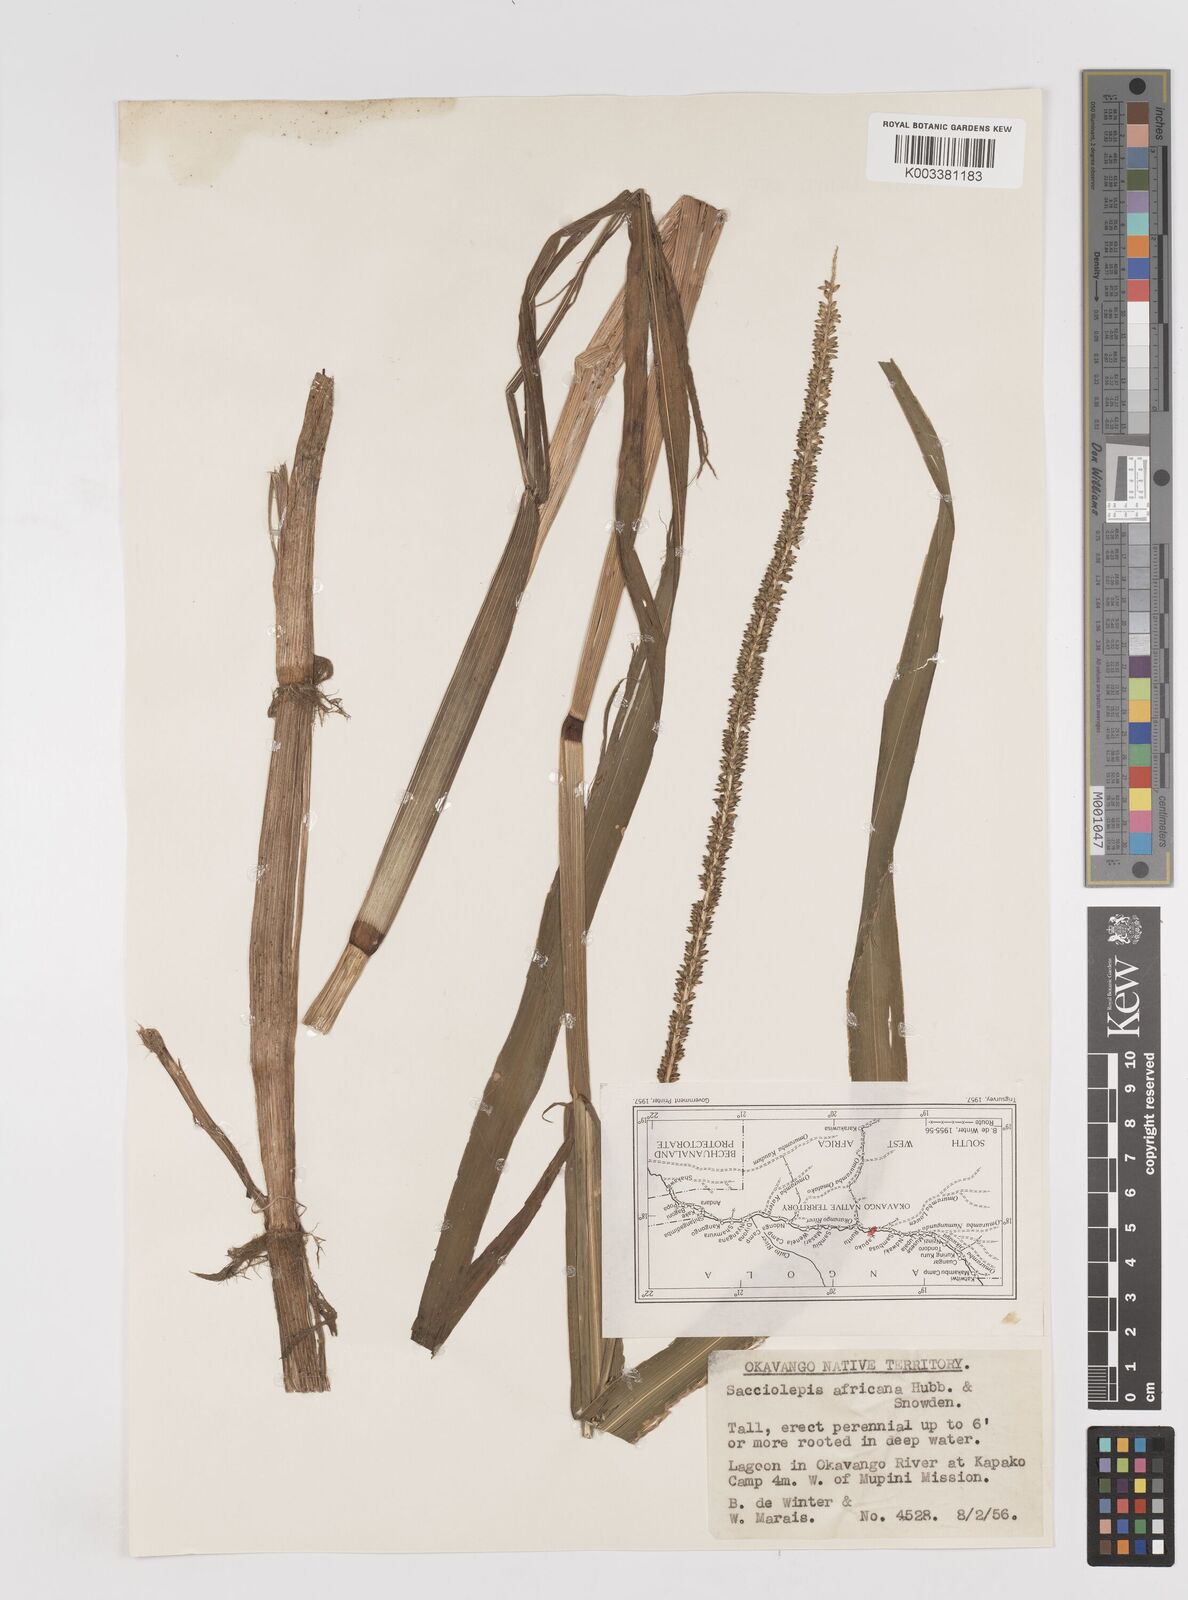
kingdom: Plantae
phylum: Tracheophyta
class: Liliopsida
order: Poales
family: Poaceae
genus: Sacciolepis
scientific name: Sacciolepis africana
